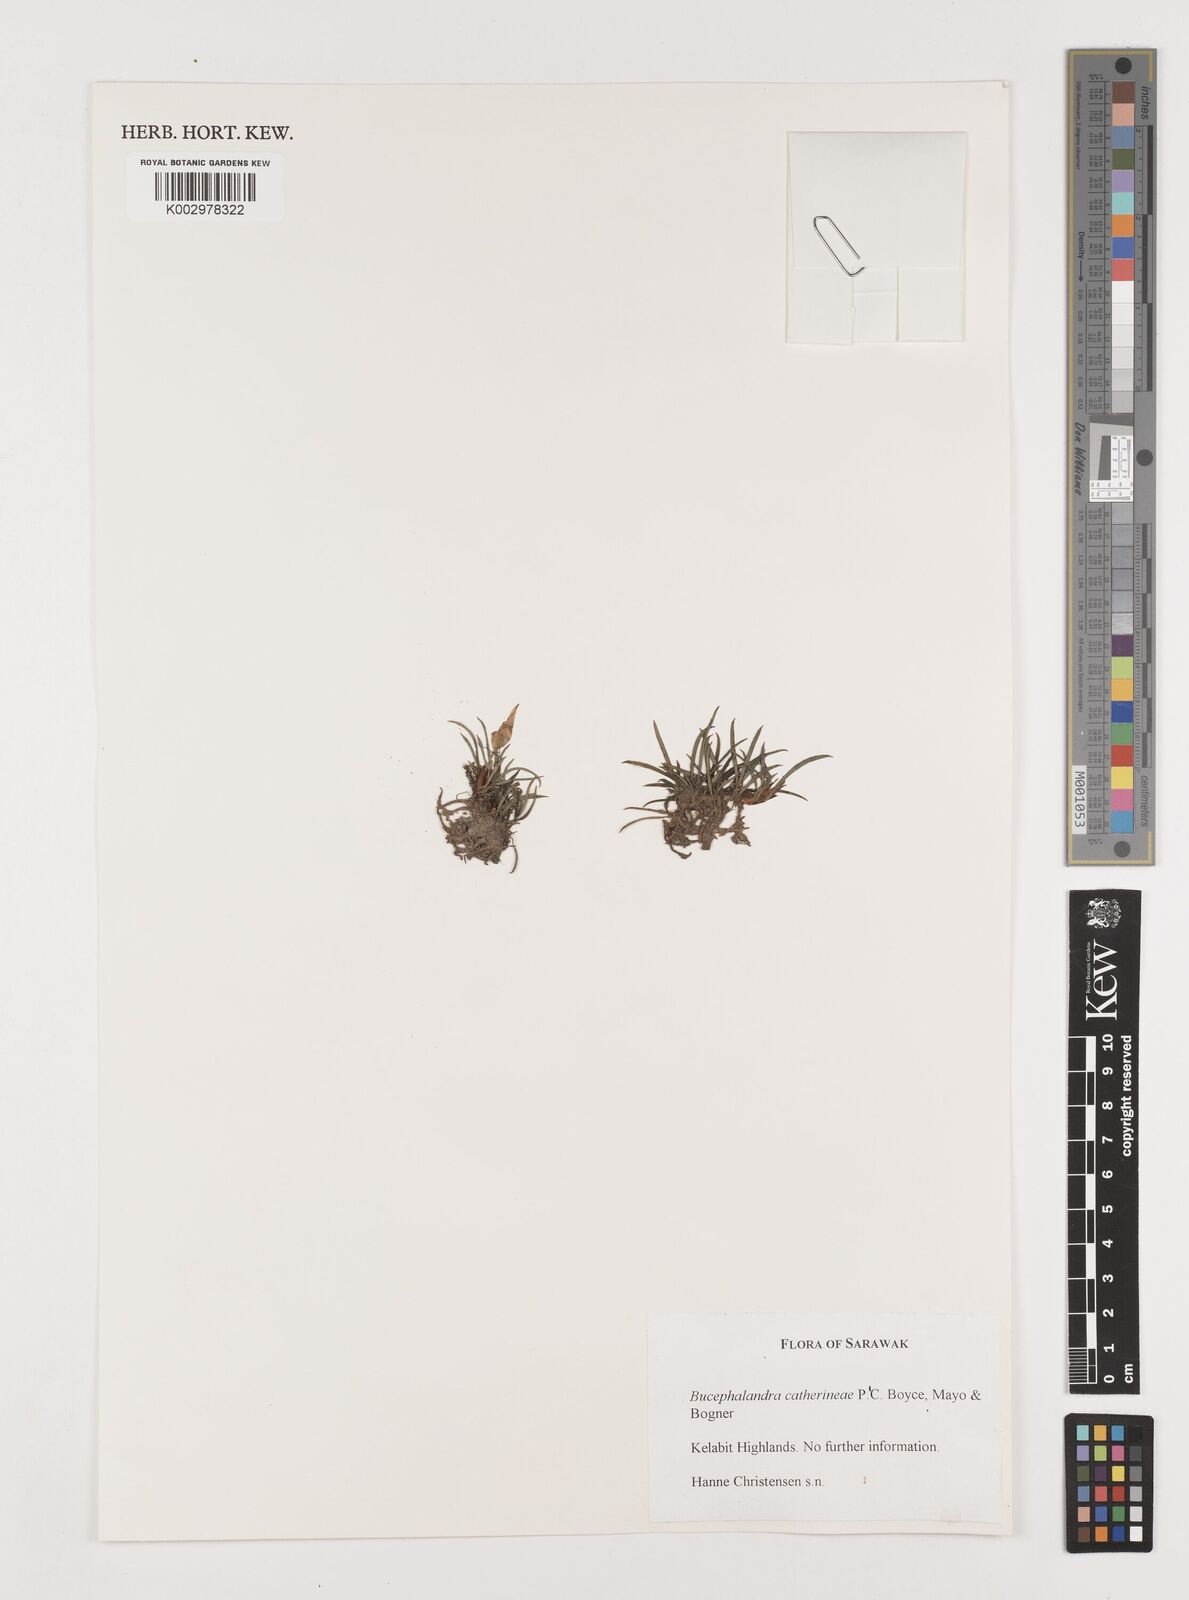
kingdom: Plantae
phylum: Tracheophyta
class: Liliopsida
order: Alismatales
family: Araceae
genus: Bucephalandra
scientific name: Bucephalandra motleyana
